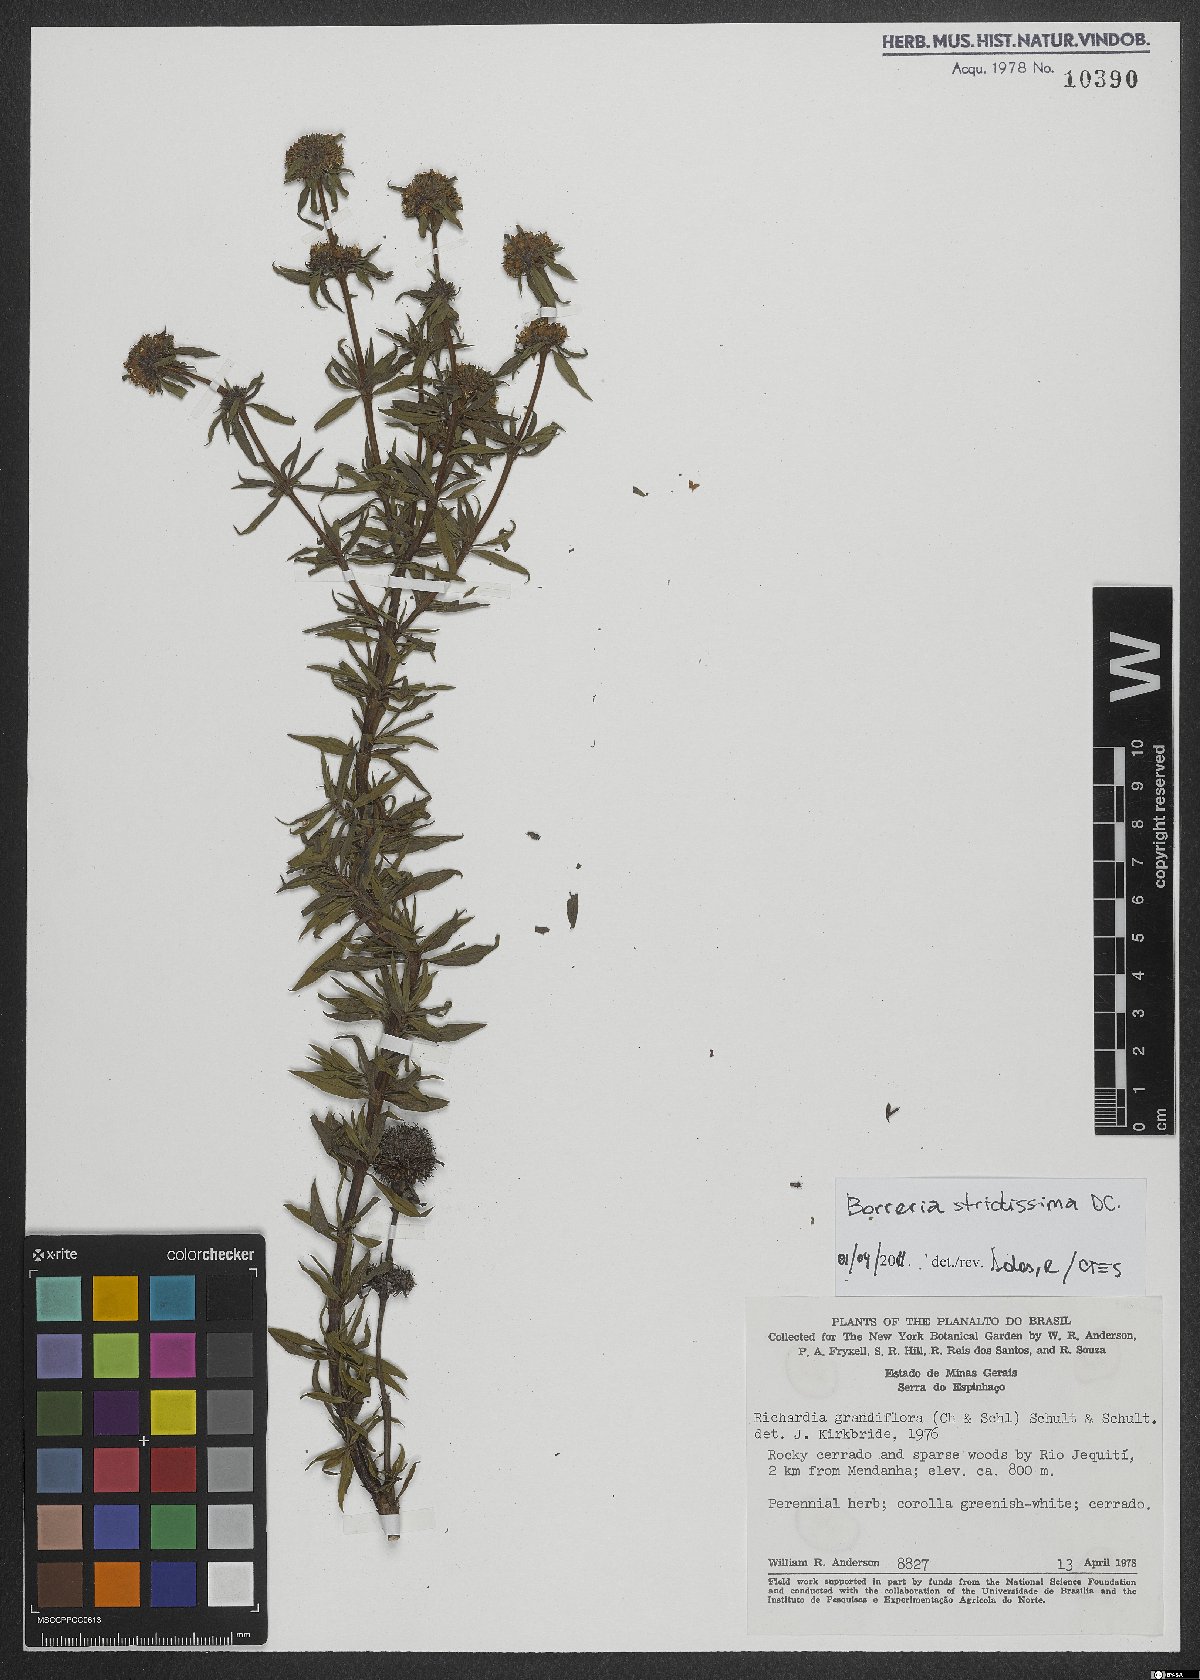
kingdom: Plantae
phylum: Tracheophyta
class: Magnoliopsida
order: Gentianales
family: Rubiaceae
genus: Spermacoce
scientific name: Spermacoce capitata
